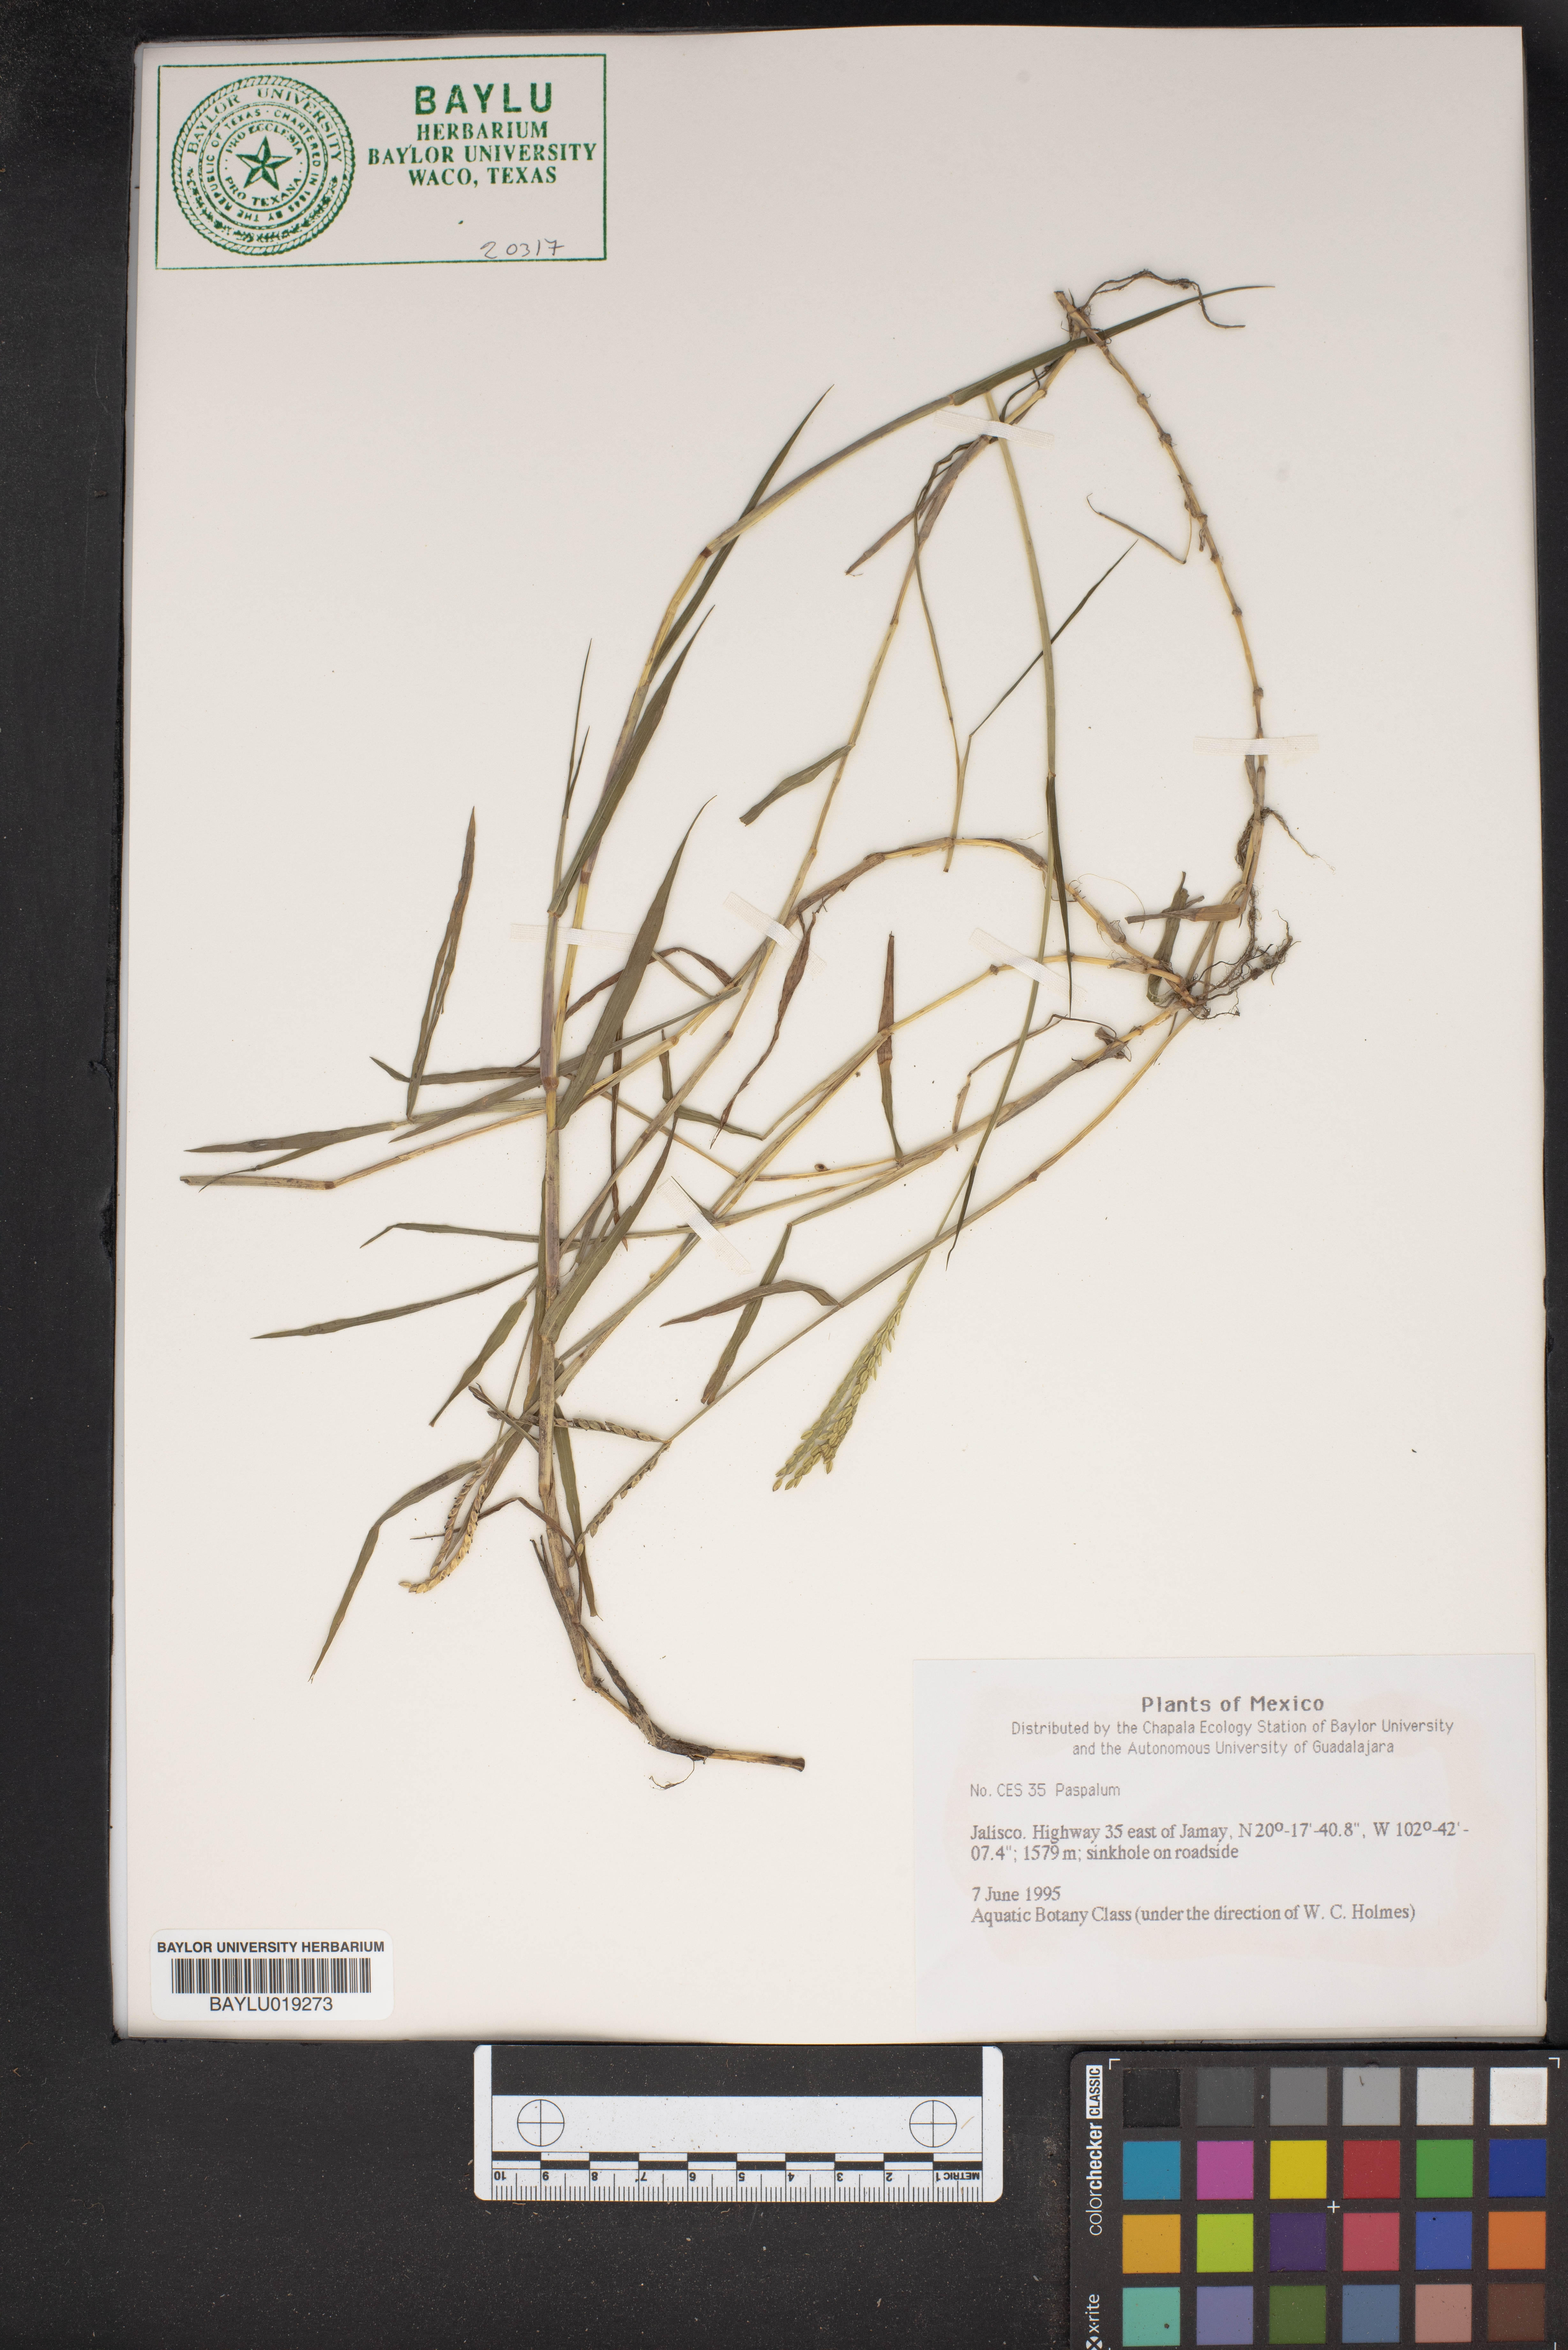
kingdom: Plantae
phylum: Tracheophyta
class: Liliopsida
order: Poales
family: Poaceae
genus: Paspalum
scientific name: Paspalum
